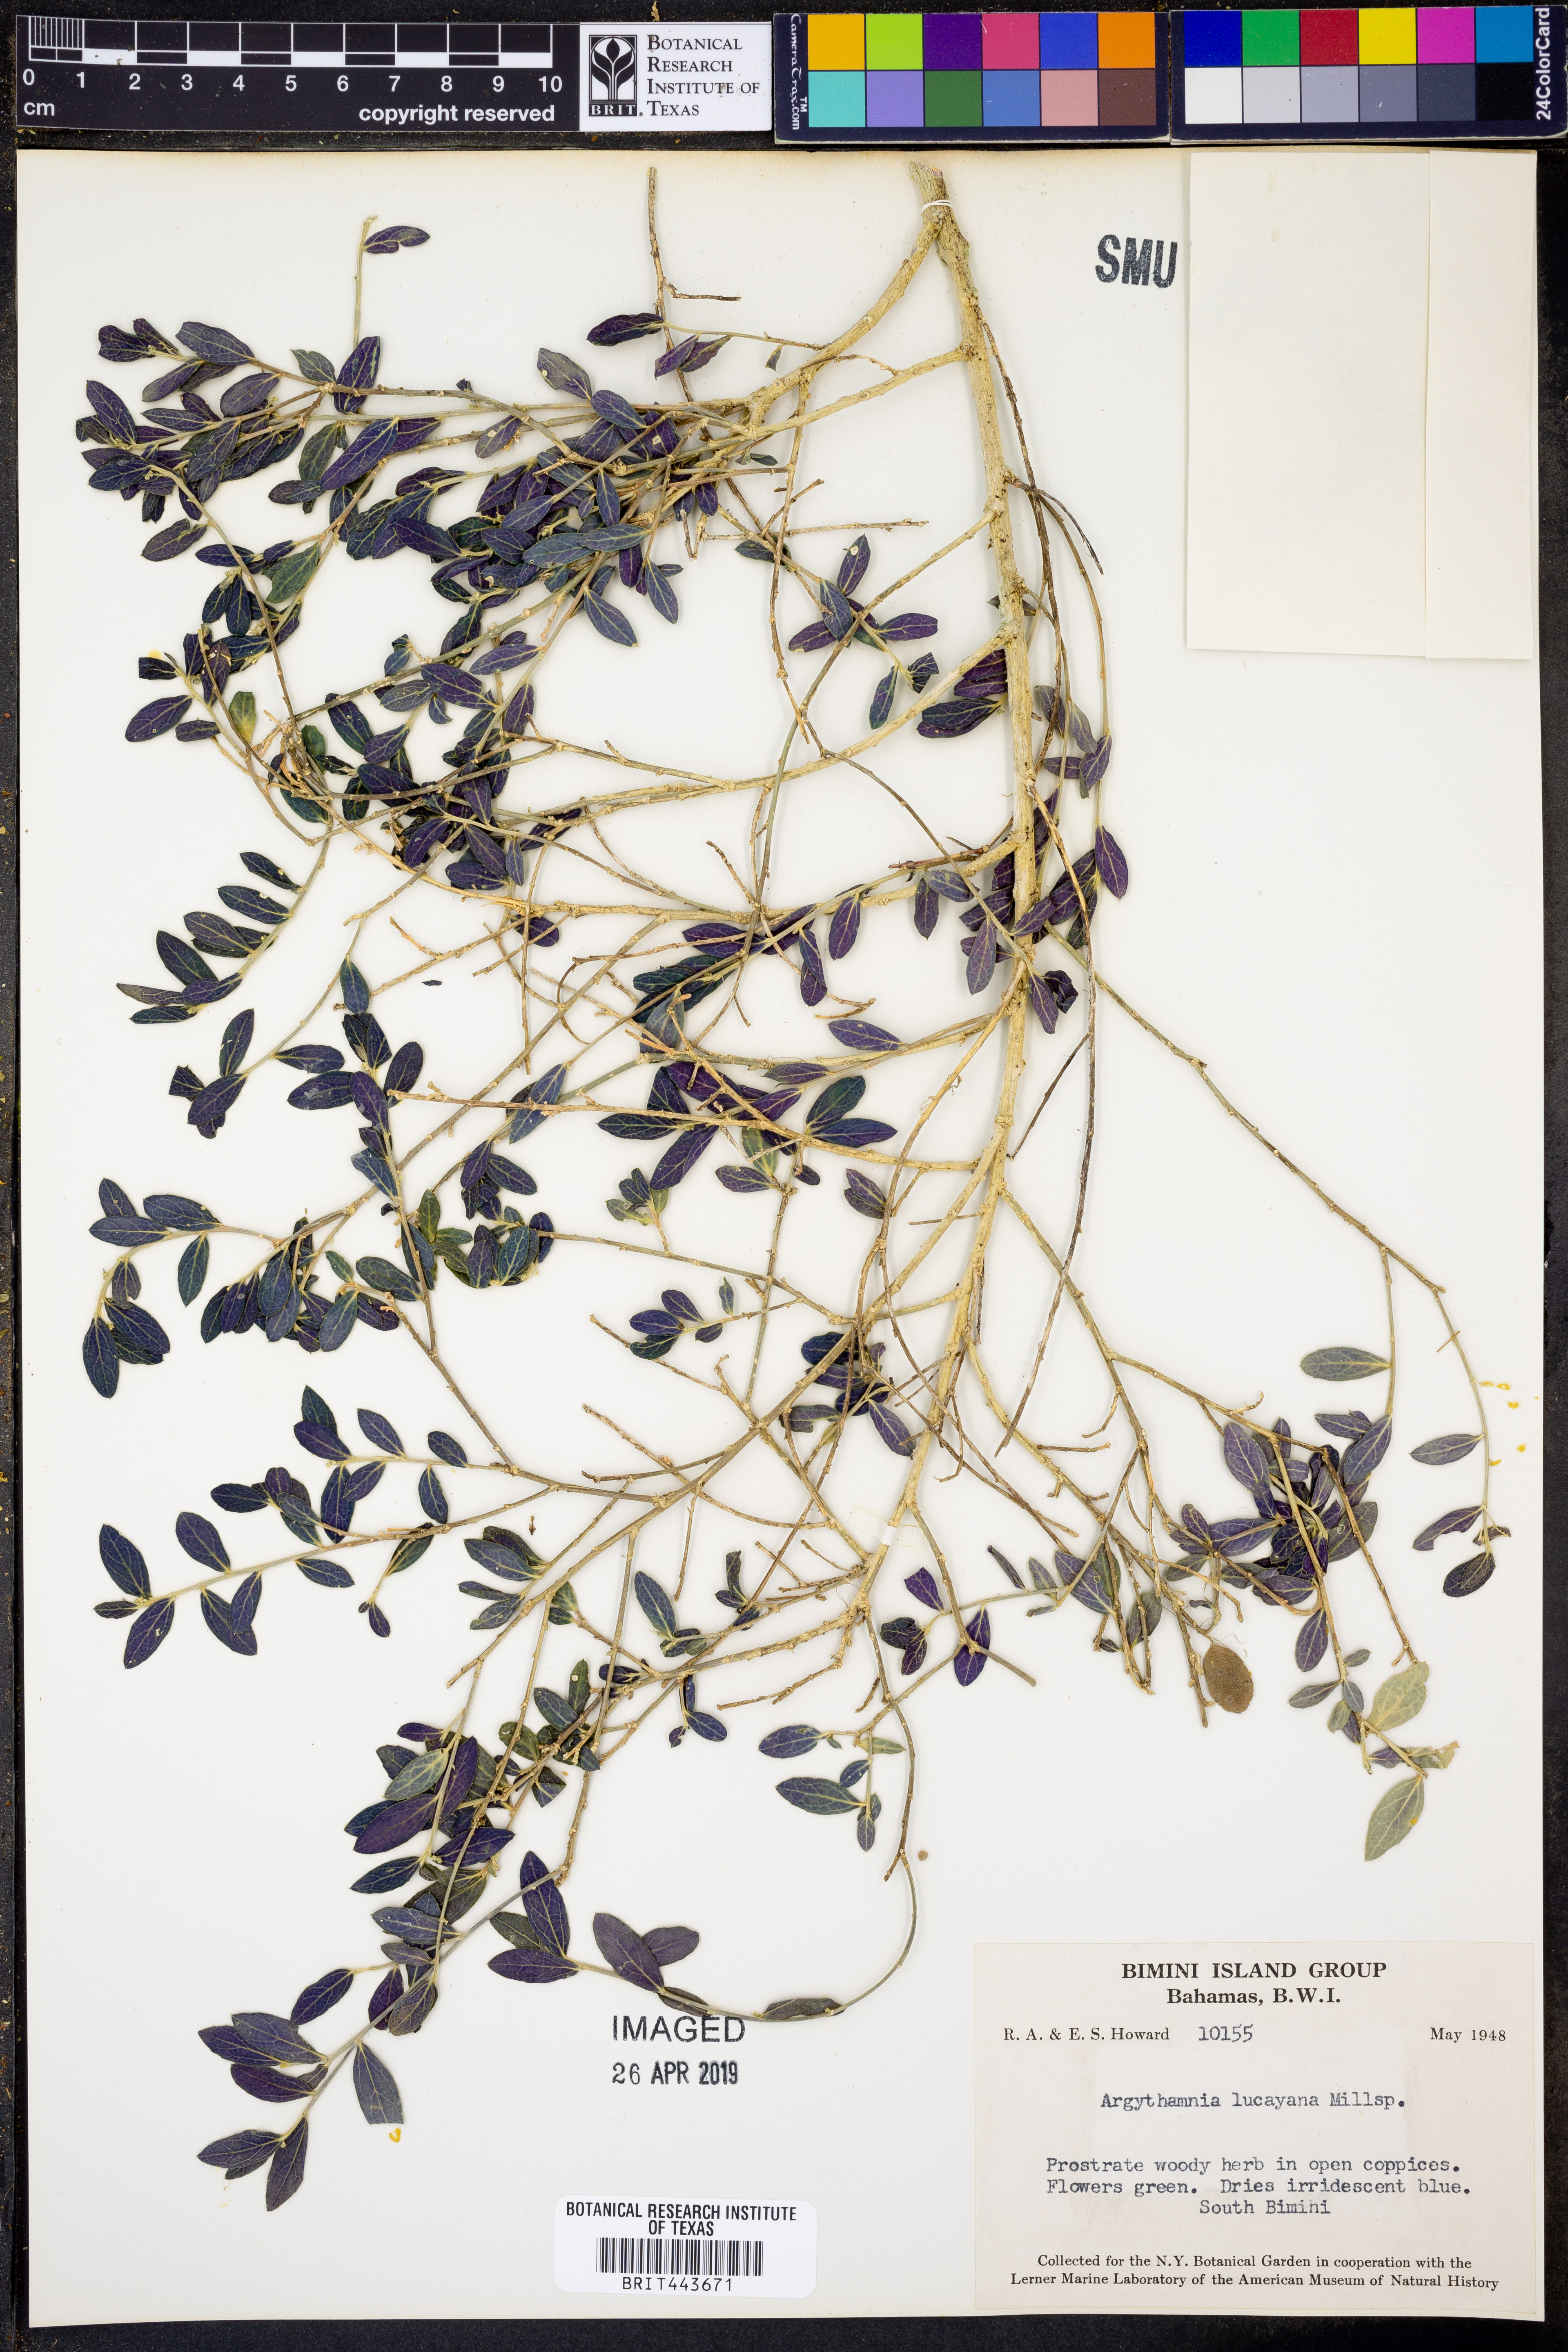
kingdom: Plantae
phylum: Tracheophyta
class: Magnoliopsida
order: Malpighiales
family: Euphorbiaceae
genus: Argythamnia
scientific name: Argythamnia lucayana
